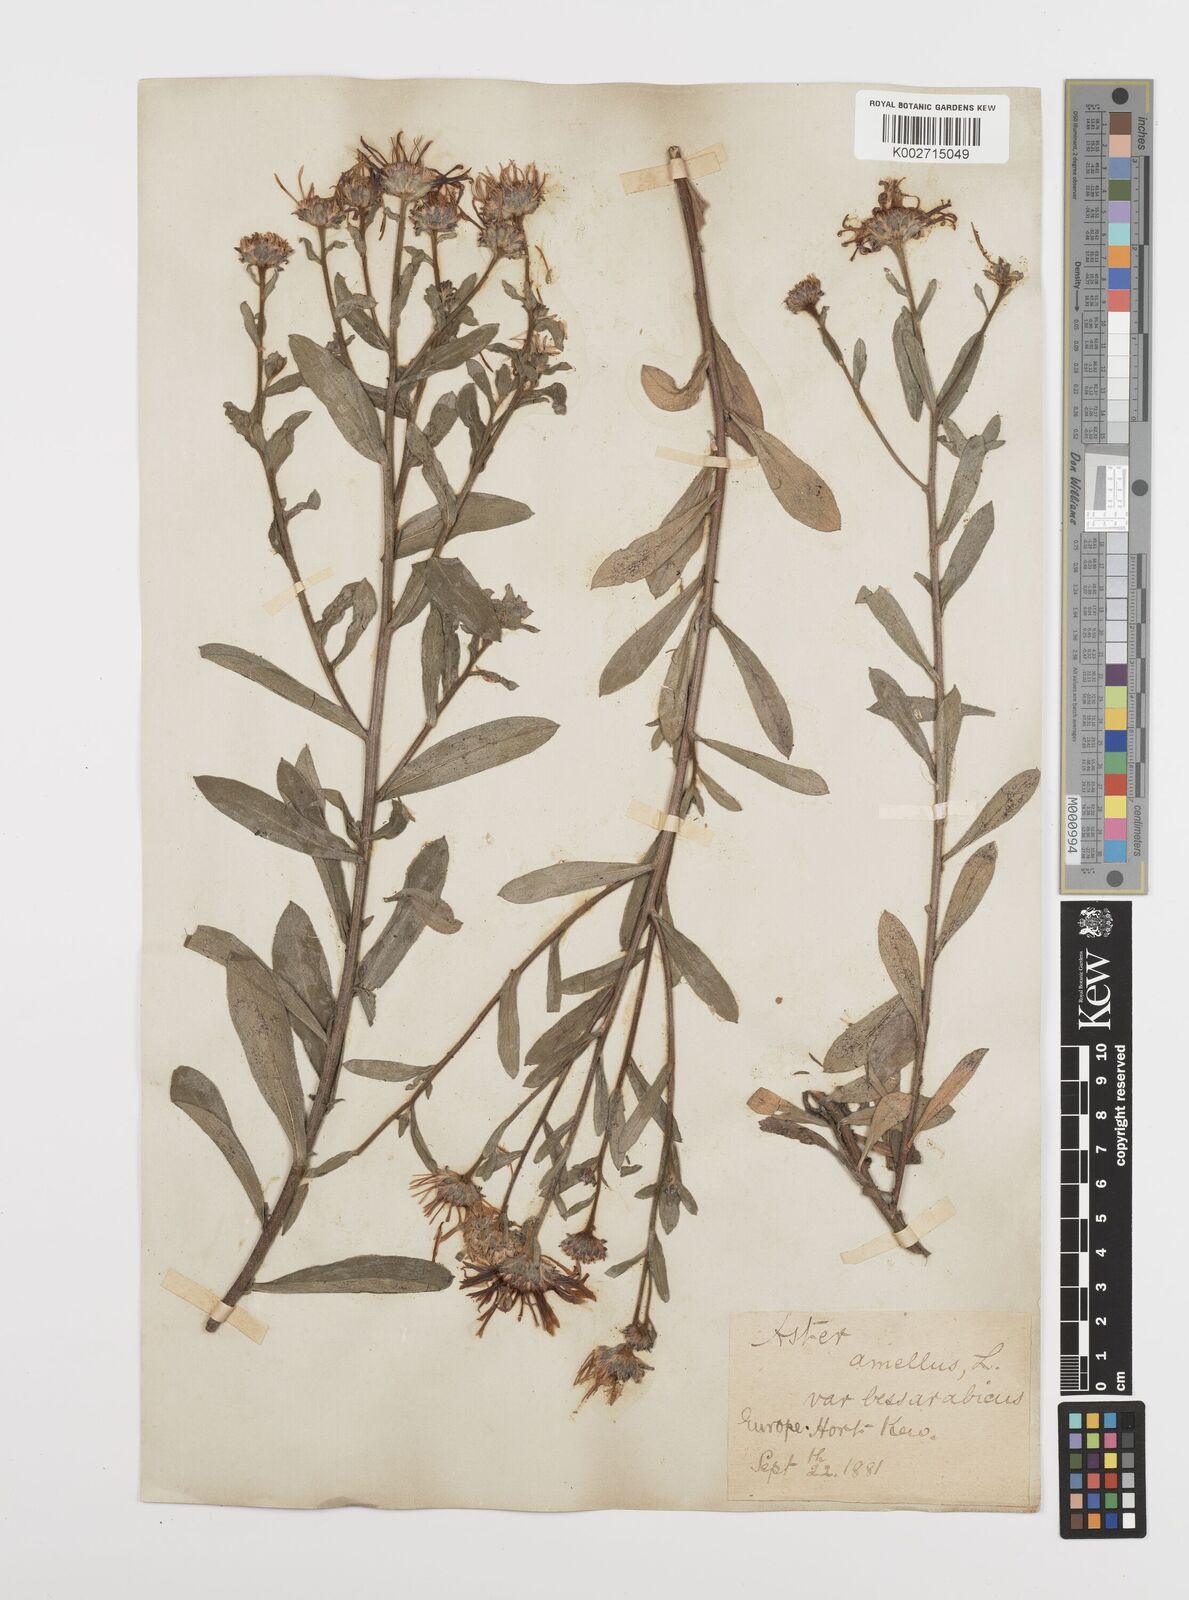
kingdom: Plantae
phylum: Tracheophyta
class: Magnoliopsida
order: Asterales
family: Asteraceae
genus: Aster
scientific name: Aster amellus
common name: European michaelmas daisy
